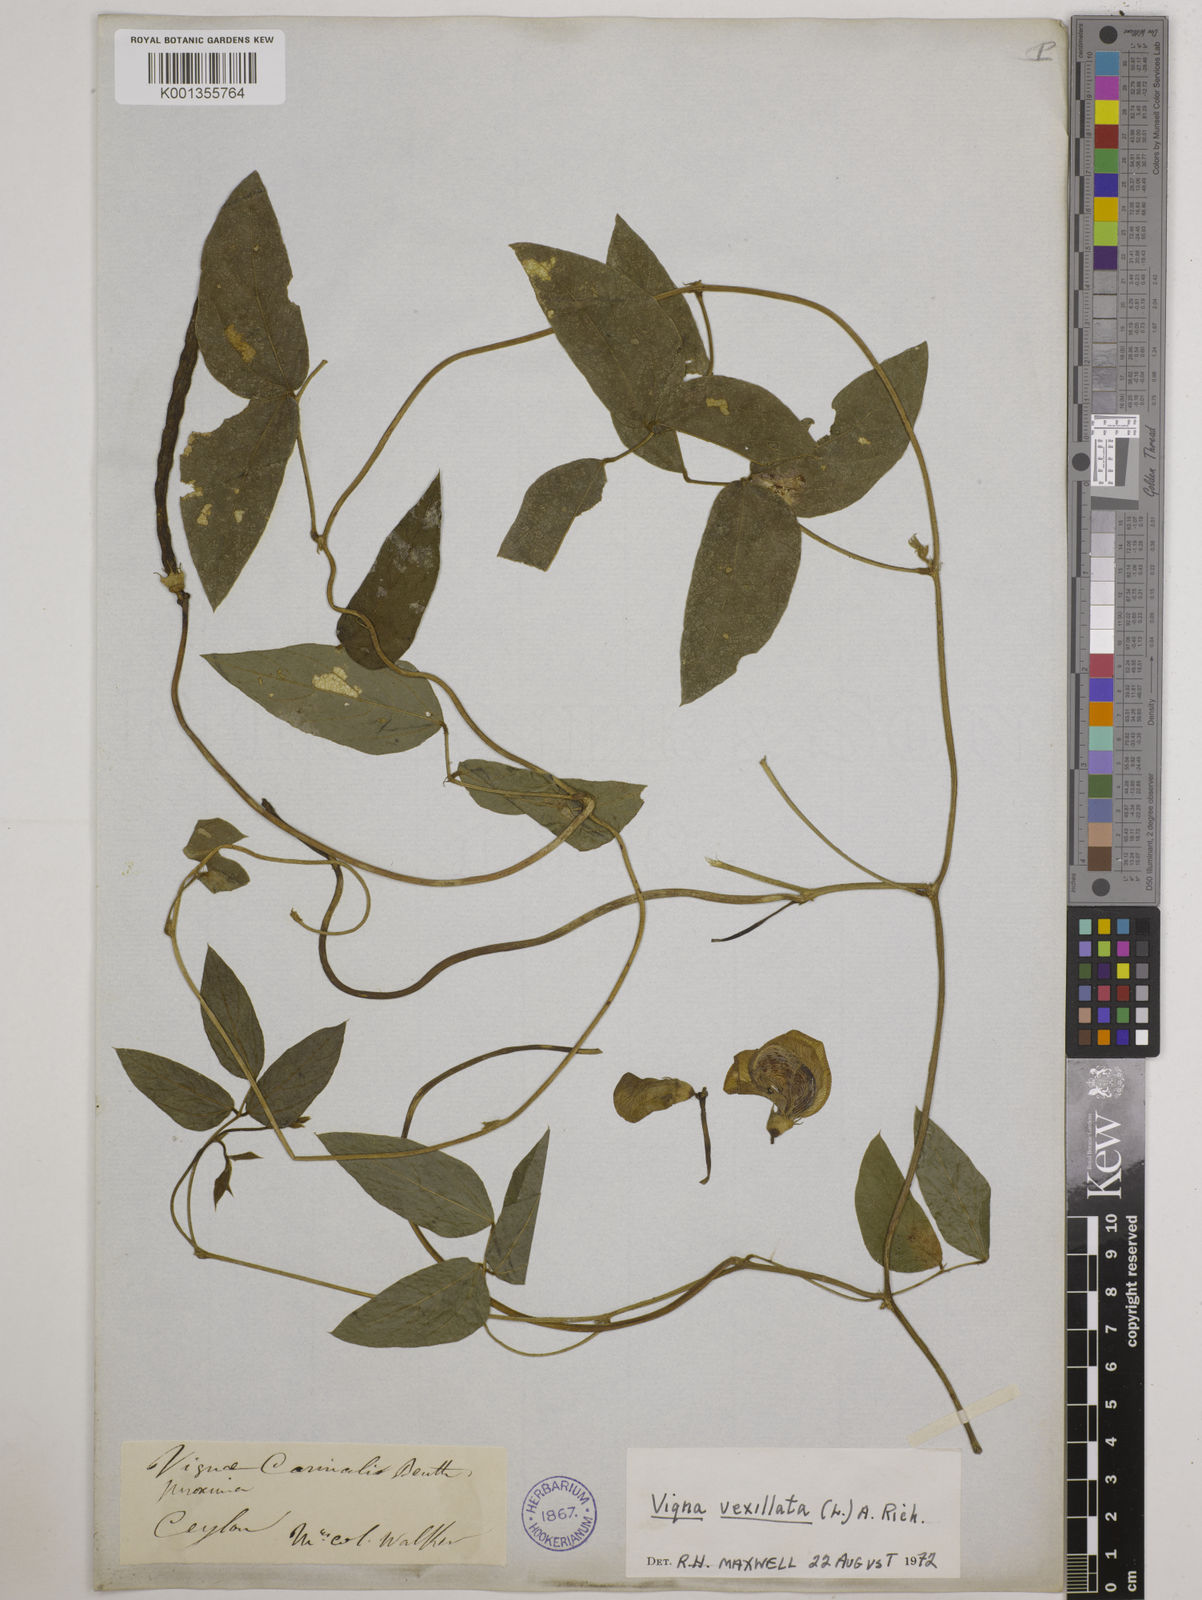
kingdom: Plantae
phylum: Tracheophyta
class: Magnoliopsida
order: Fabales
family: Fabaceae
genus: Vigna
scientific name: Vigna vexillata
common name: Zombi pea
